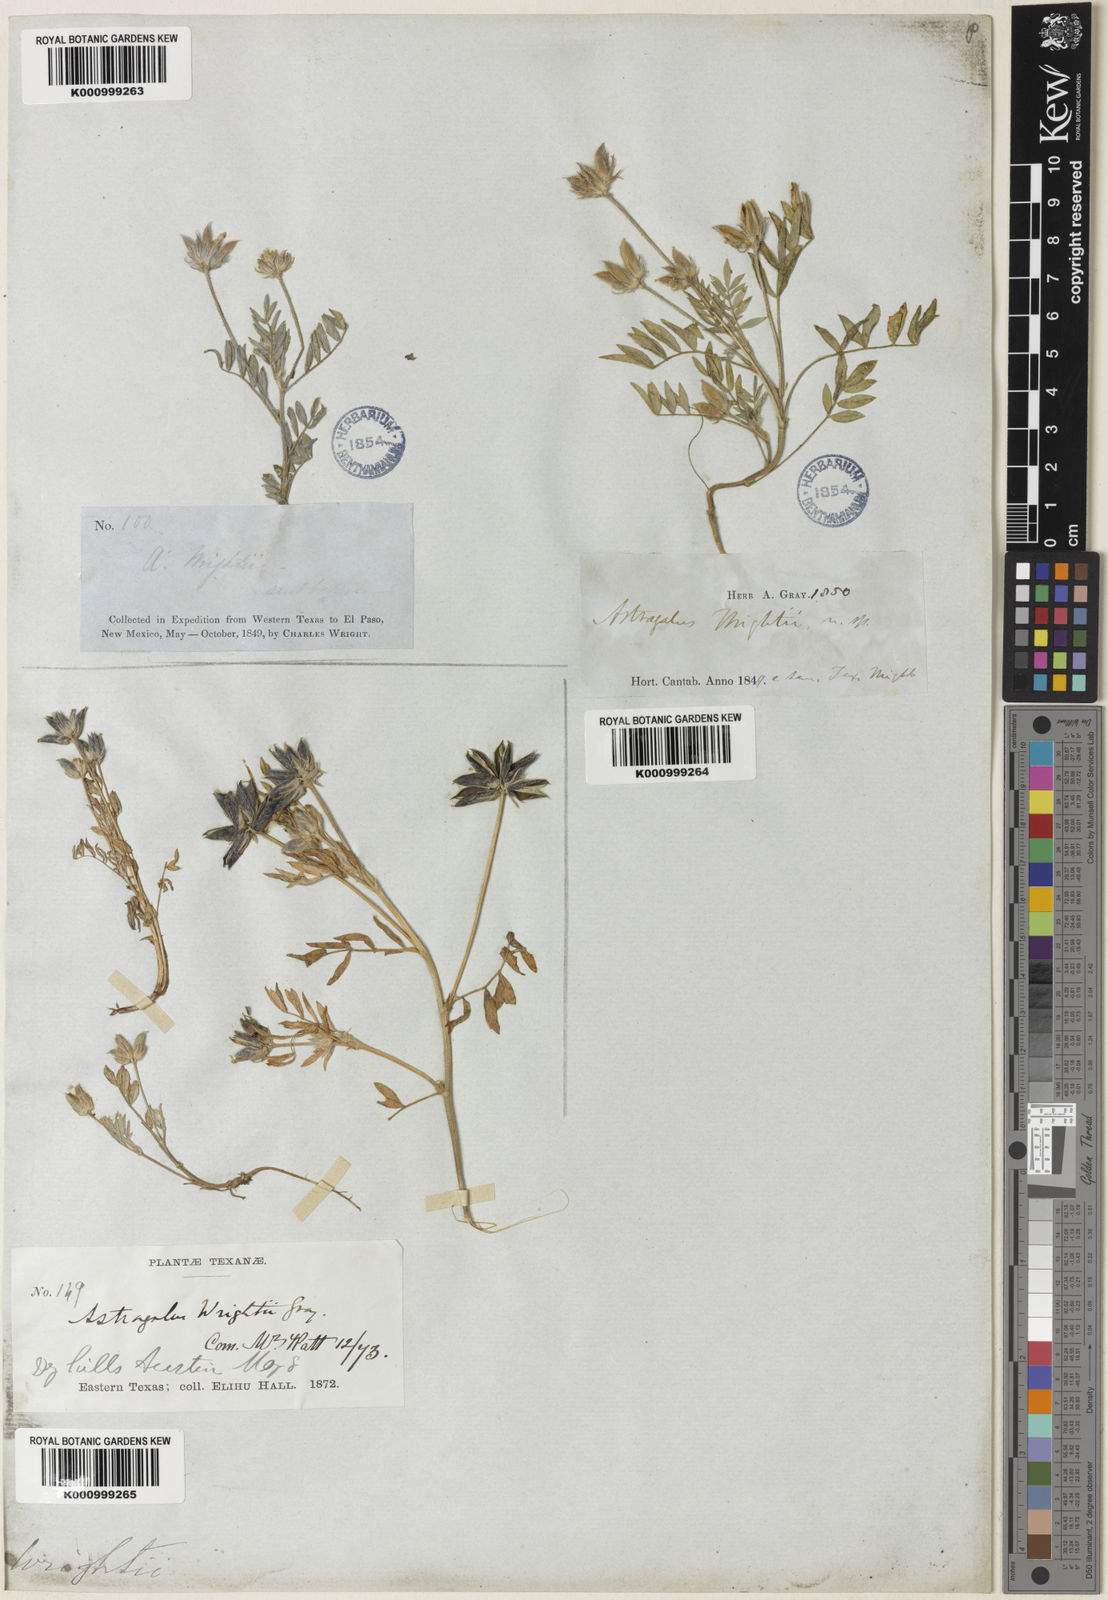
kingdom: Plantae
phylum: Tracheophyta
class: Magnoliopsida
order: Fabales
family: Fabaceae
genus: Astragalus
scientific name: Astragalus wrightii
